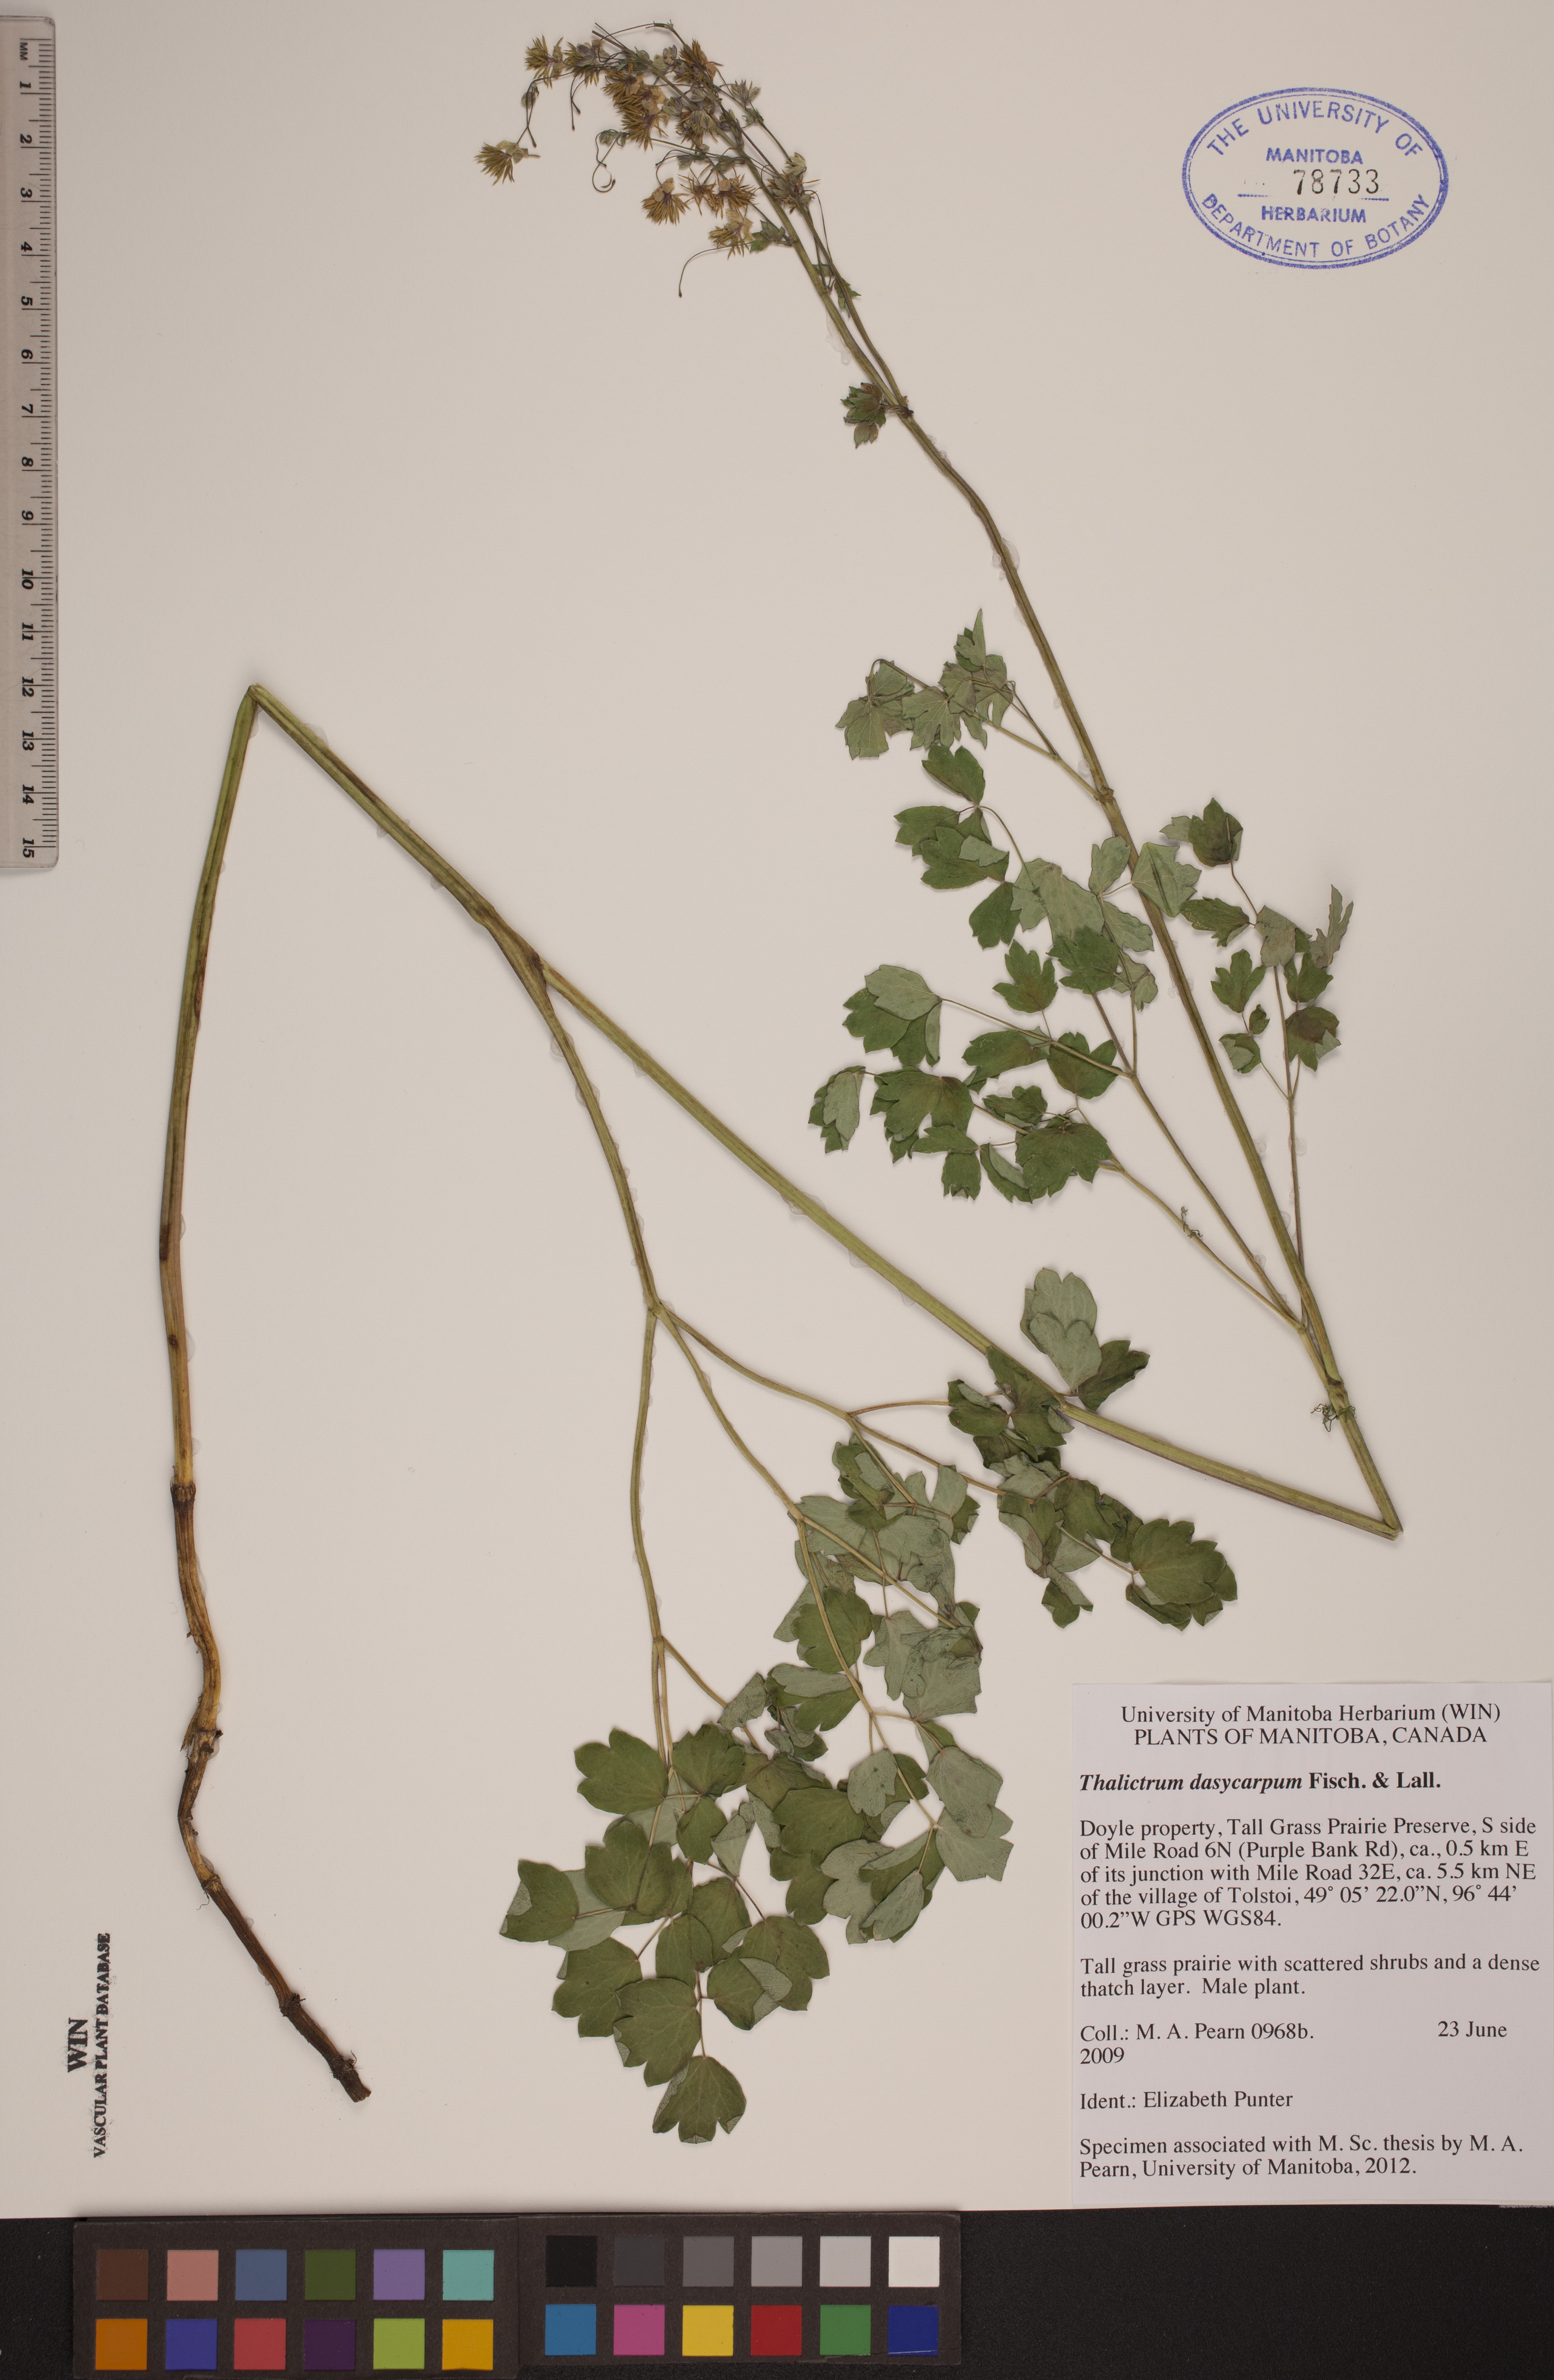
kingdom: Plantae
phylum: Tracheophyta
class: Magnoliopsida
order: Ranunculales
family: Ranunculaceae
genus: Thalictrum
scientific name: Thalictrum dasycarpum
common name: Purple meadow-rue
